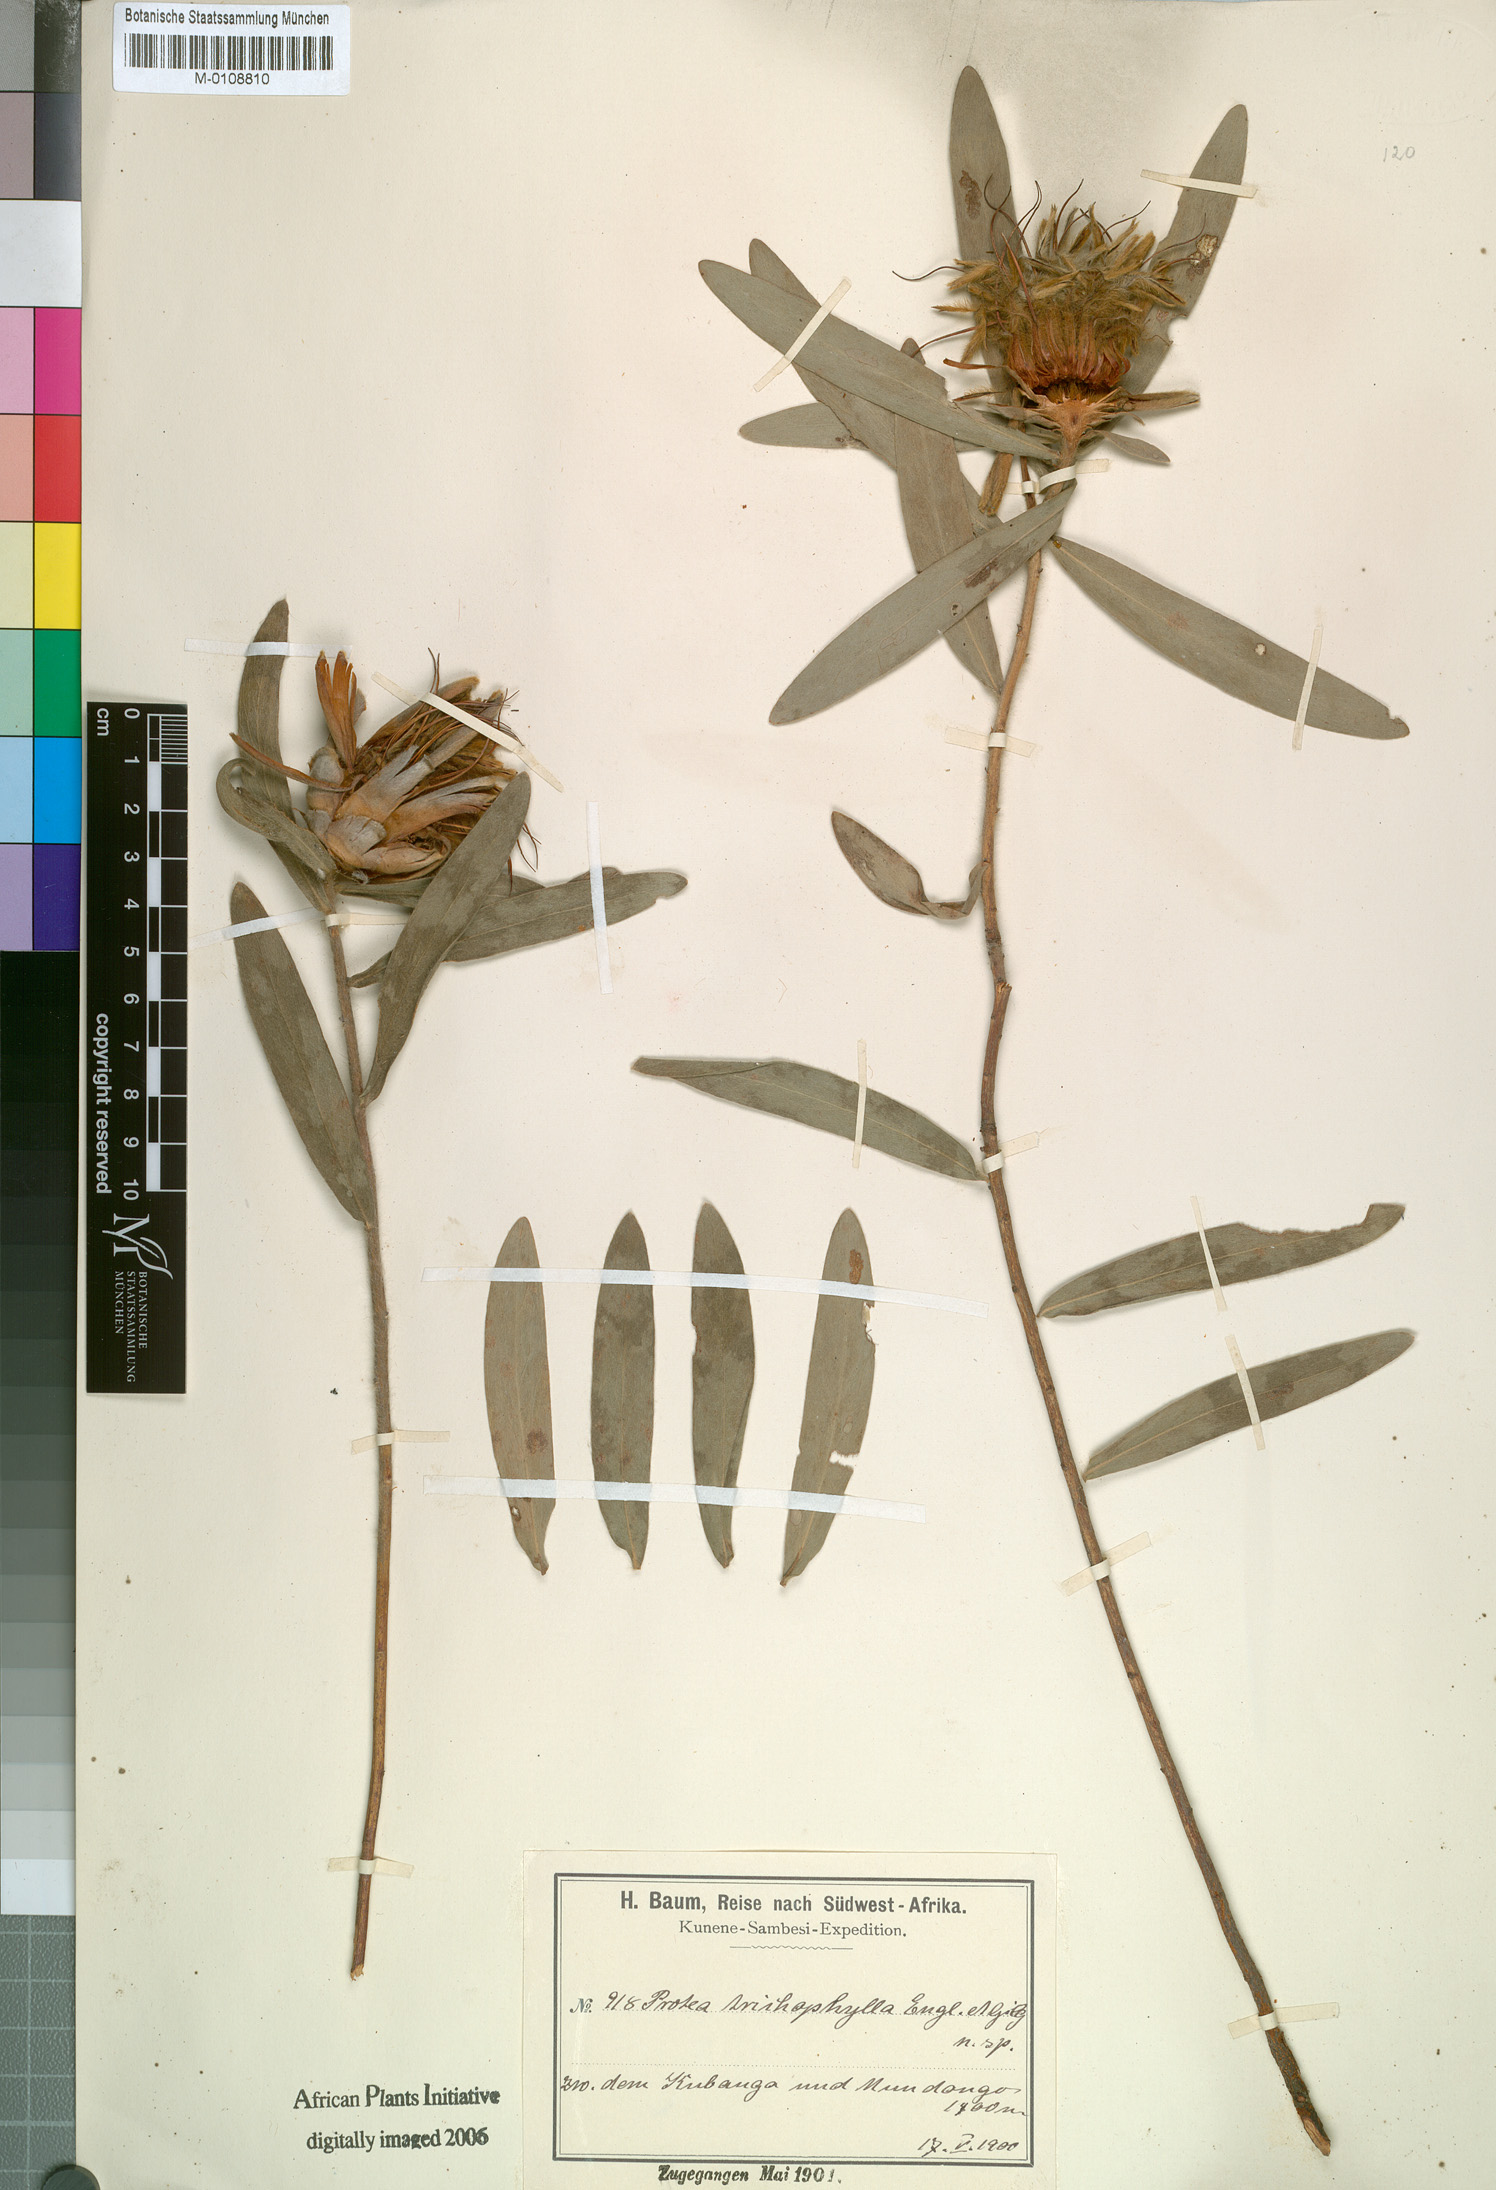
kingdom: Plantae
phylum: Tracheophyta
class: Magnoliopsida
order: Proteales
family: Proteaceae
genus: Protea
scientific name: Protea micans
